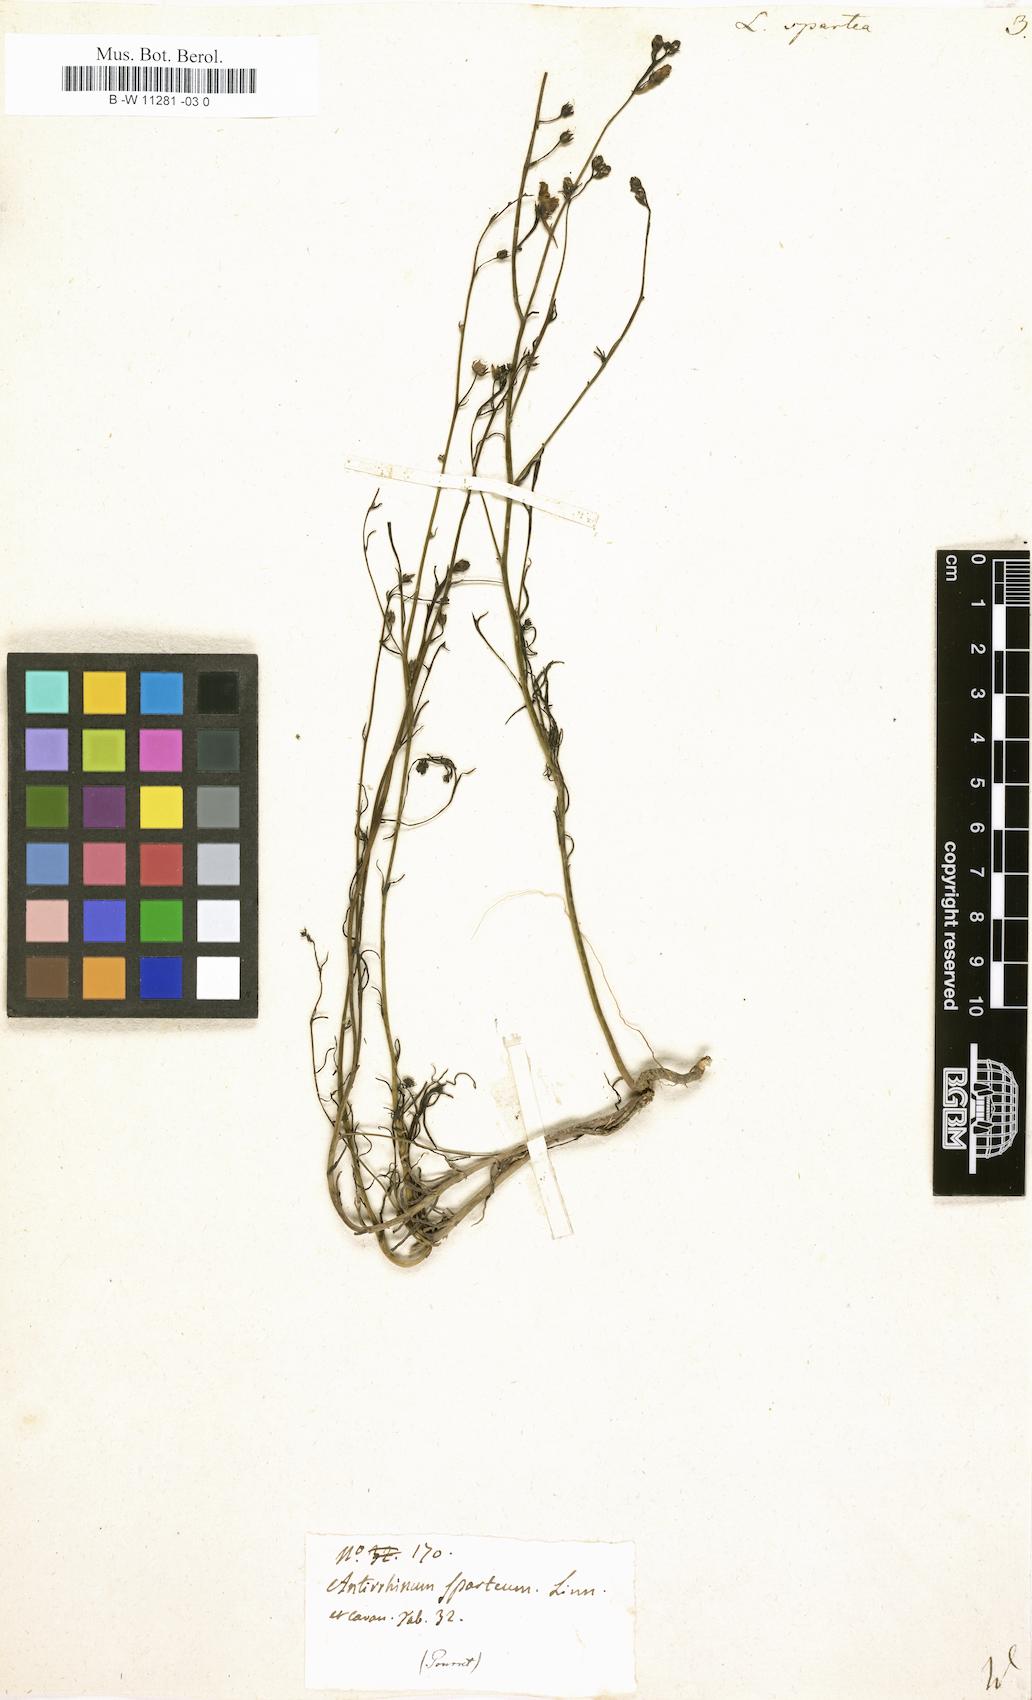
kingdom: Plantae
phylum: Tracheophyta
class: Magnoliopsida
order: Lamiales
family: Plantaginaceae
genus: Linaria
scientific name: Linaria spartea
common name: Ballast toadflax
